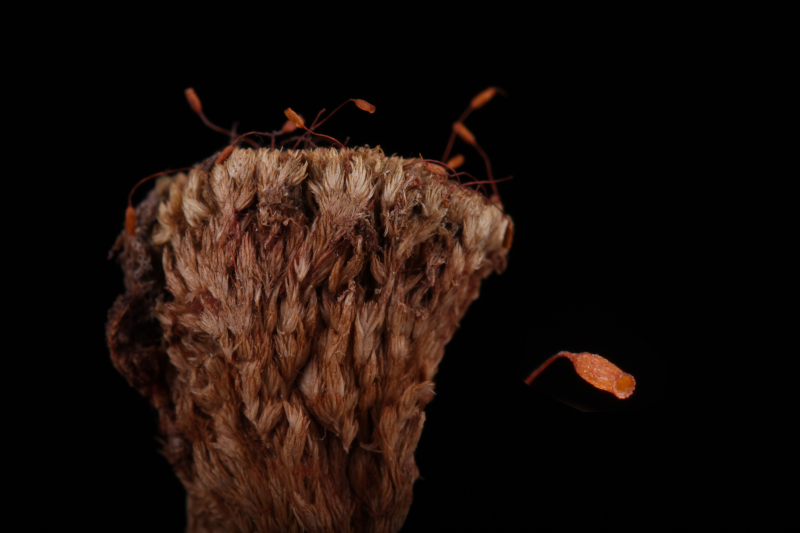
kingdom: Plantae
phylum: Bryophyta
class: Bryopsida
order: Dicranales
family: Calymperaceae
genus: Syrrhopodon
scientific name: Syrrhopodon bornensis
